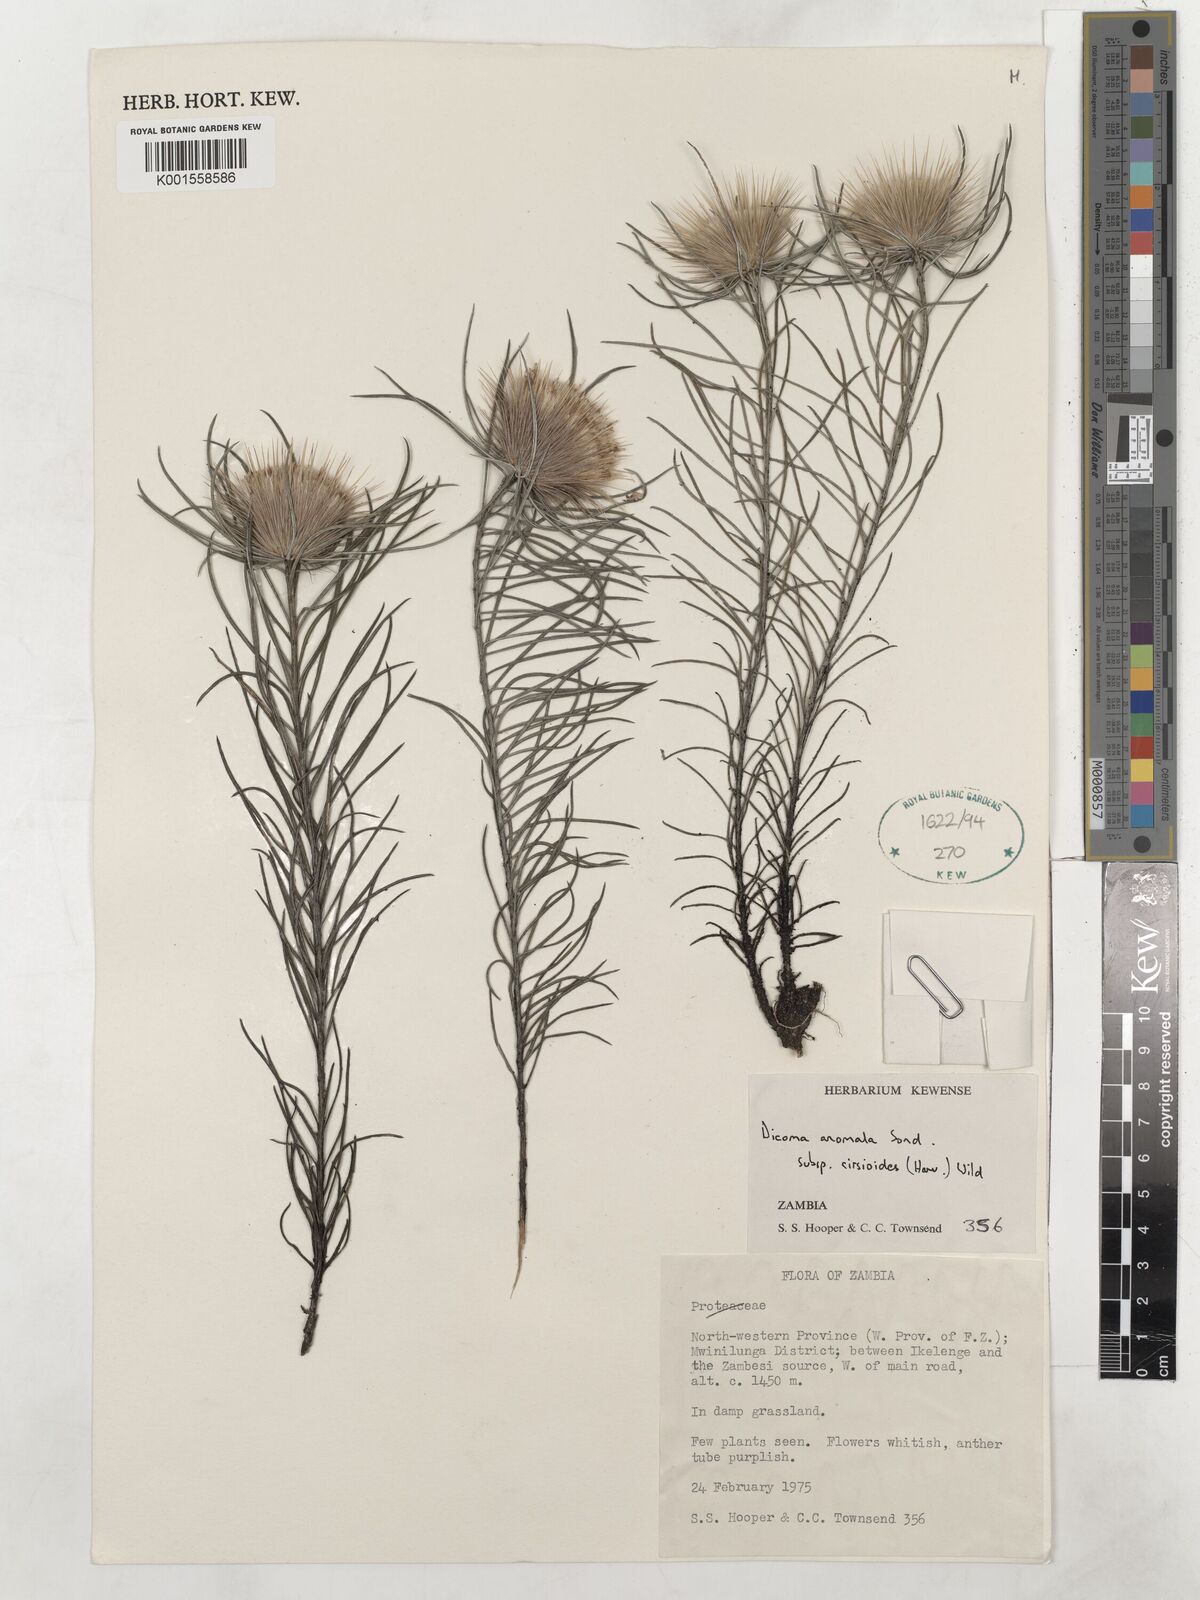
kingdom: Plantae
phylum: Tracheophyta
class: Magnoliopsida
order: Asterales
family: Asteraceae
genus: Dicoma
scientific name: Dicoma anomala
